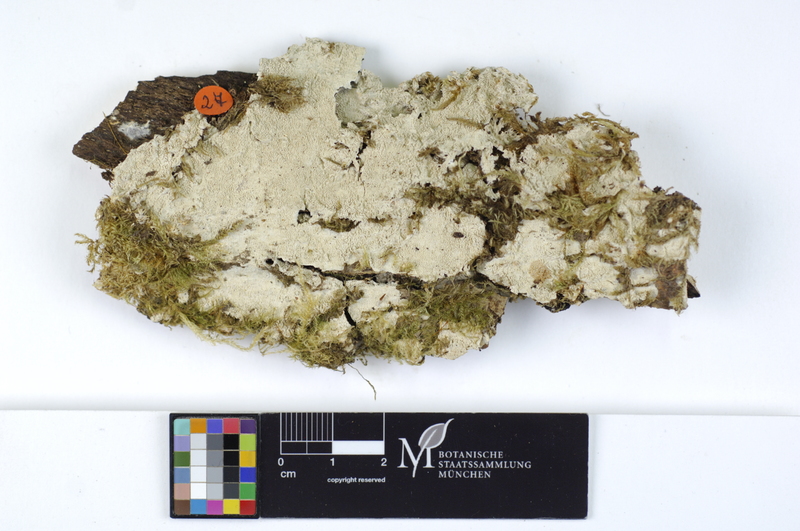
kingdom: Fungi
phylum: Basidiomycota
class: Agaricomycetes
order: Agaricales
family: Cystostereaceae
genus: Crustomyces
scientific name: Crustomyces subabruptus
